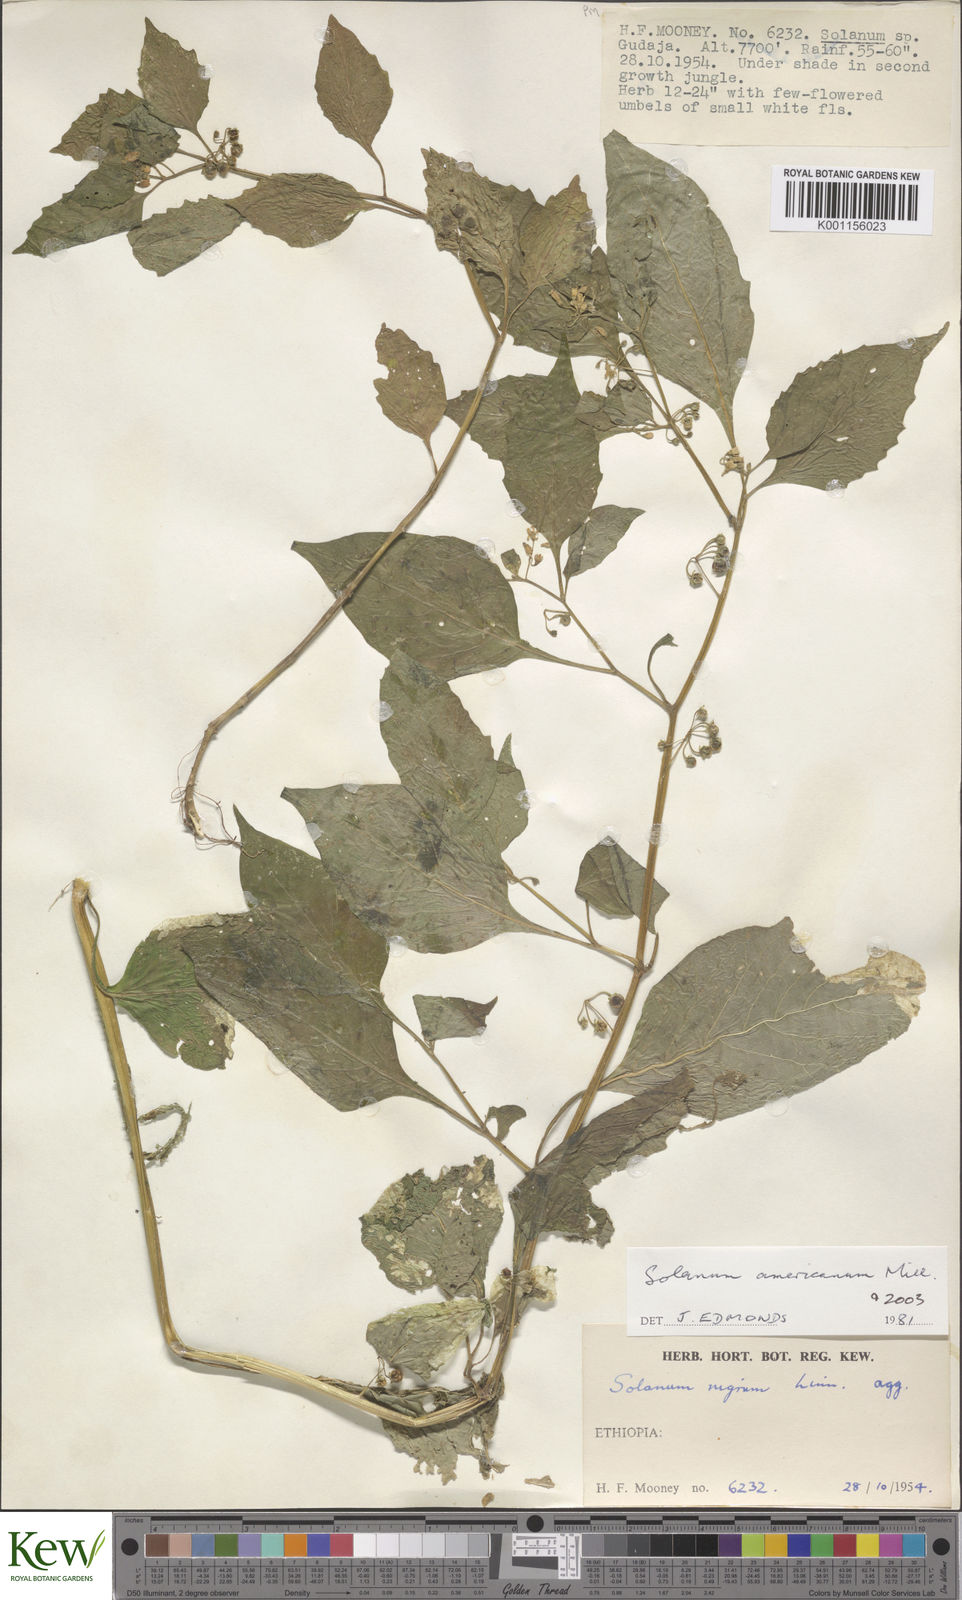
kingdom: Plantae
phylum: Tracheophyta
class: Magnoliopsida
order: Solanales
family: Solanaceae
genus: Solanum
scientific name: Solanum tarderemotum
